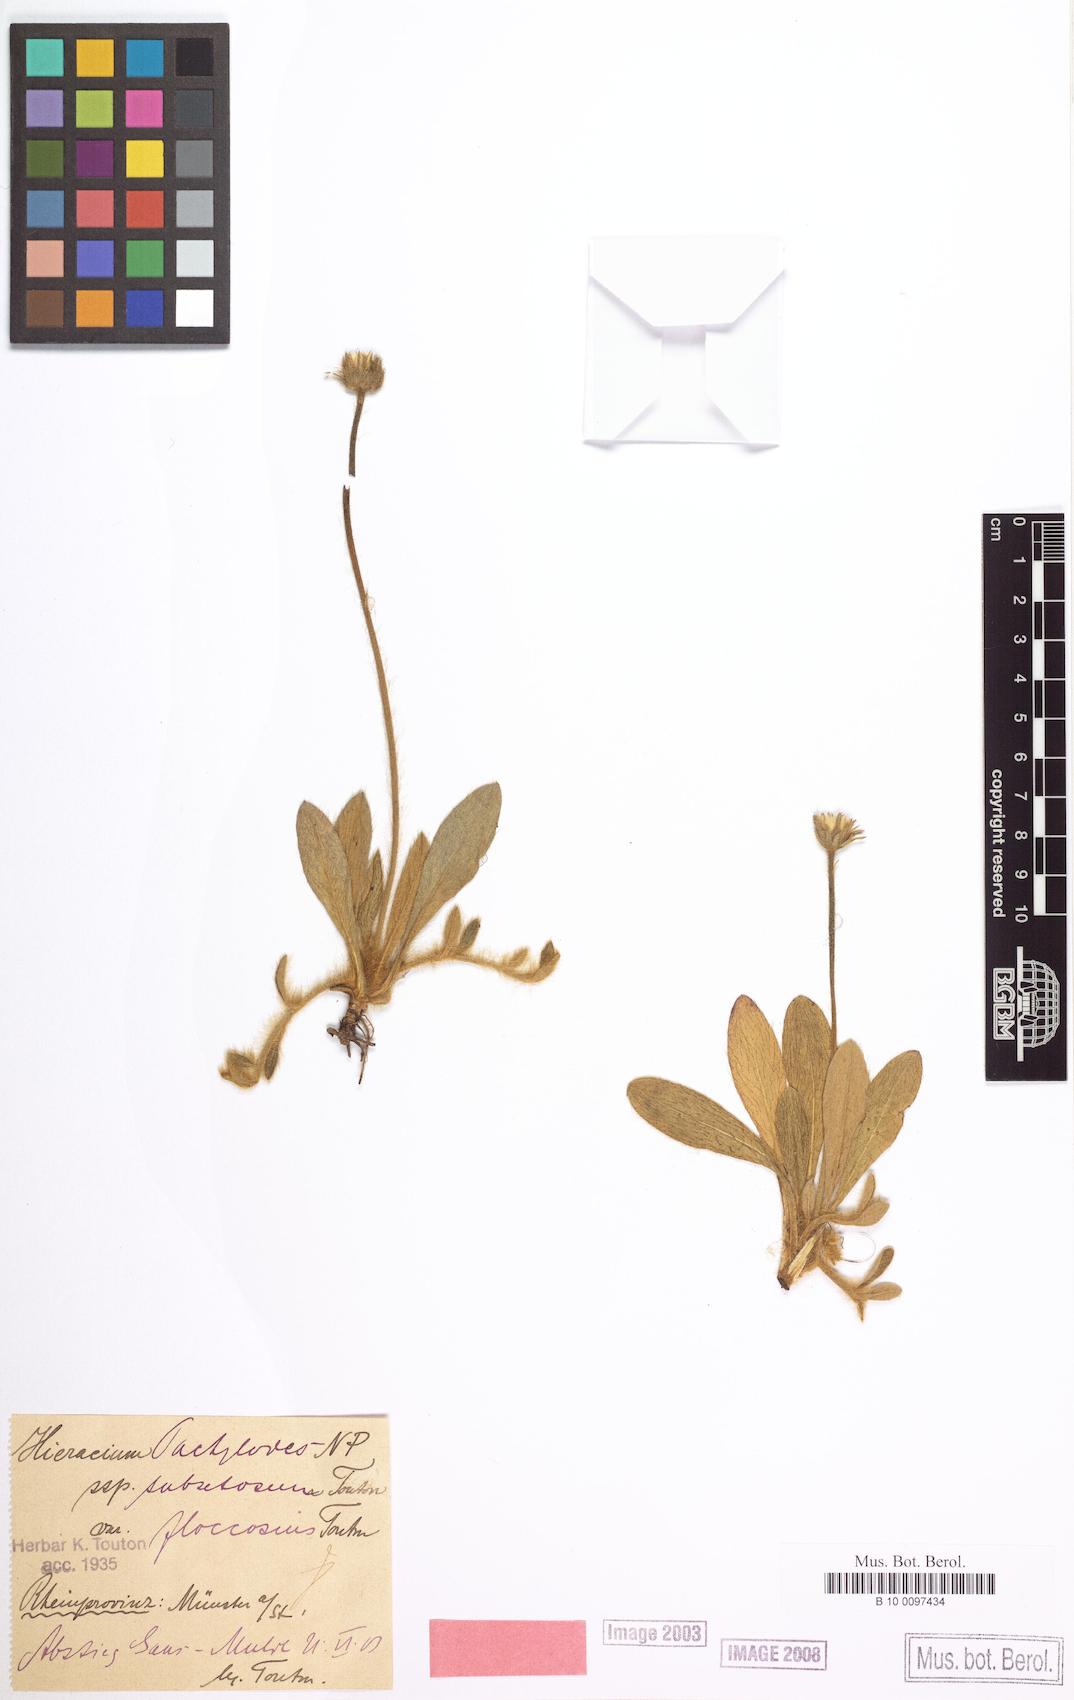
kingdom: Plantae
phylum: Tracheophyta
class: Magnoliopsida
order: Asterales
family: Asteraceae
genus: Pilosella
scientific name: Pilosella longisquama
